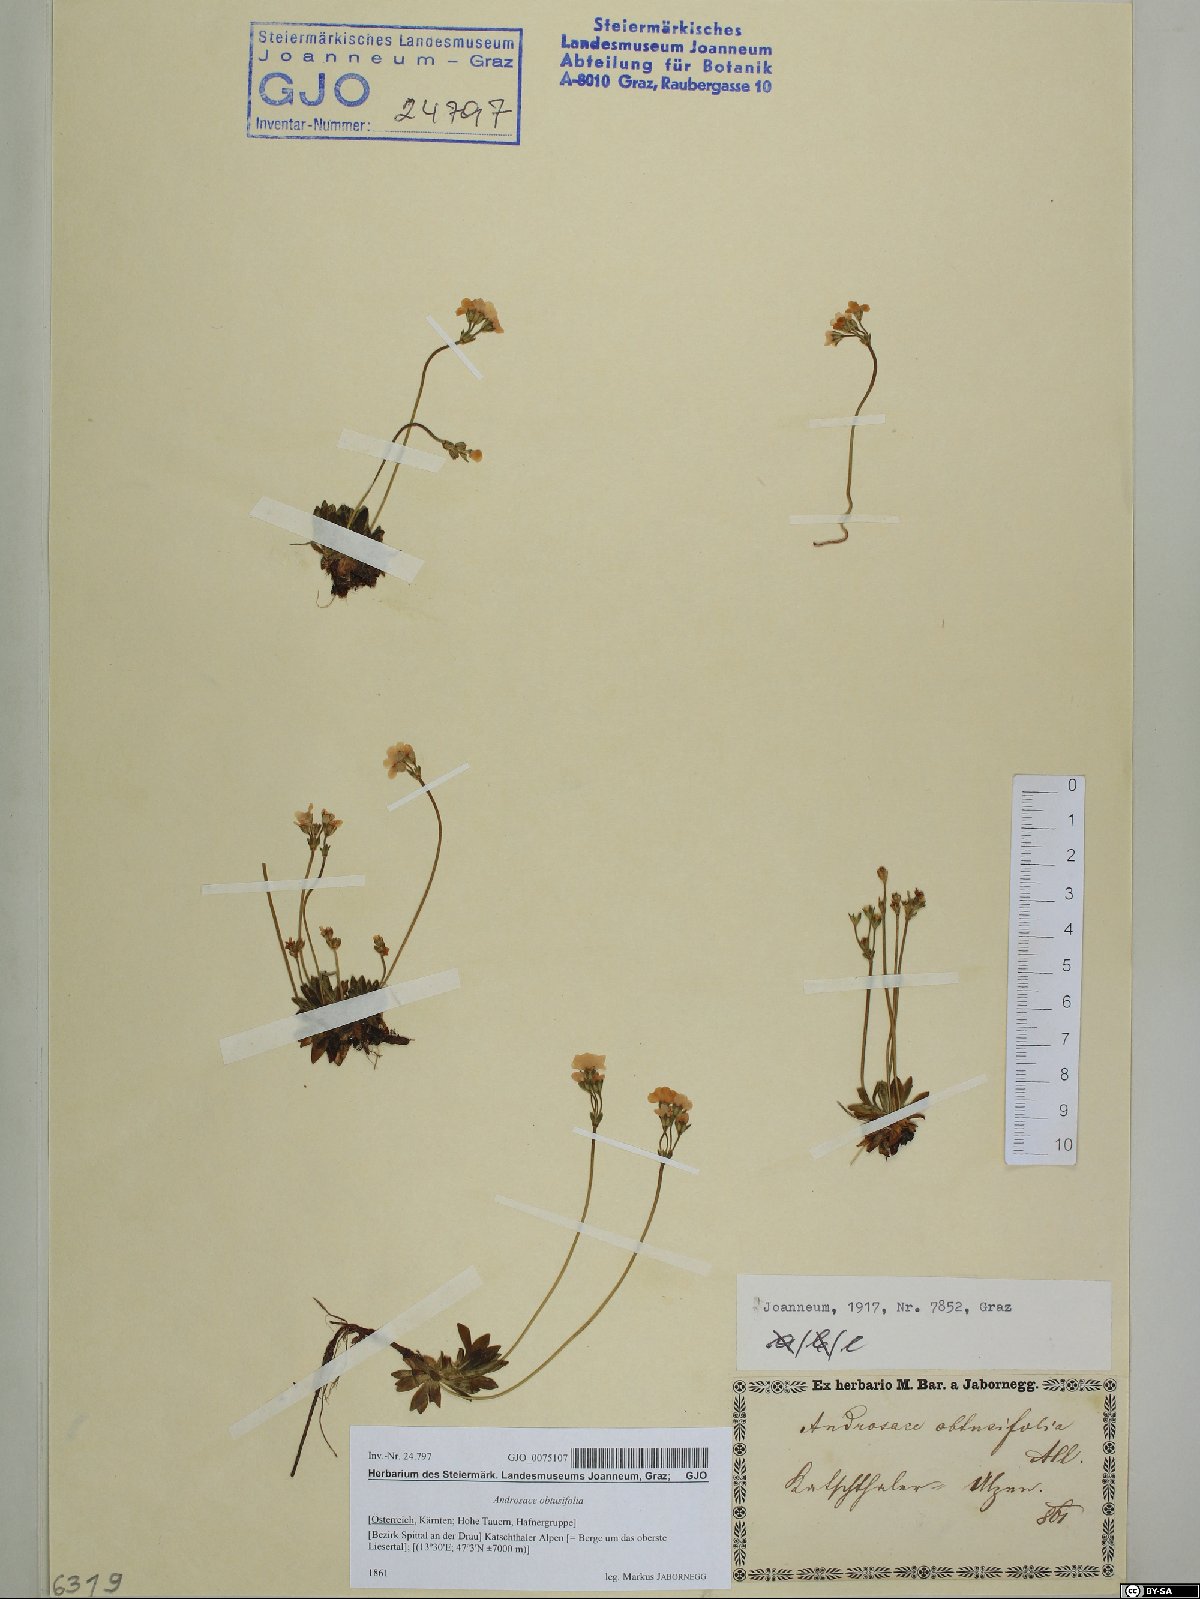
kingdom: Plantae
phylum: Tracheophyta
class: Magnoliopsida
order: Ericales
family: Primulaceae
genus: Androsace
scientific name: Androsace obtusifolia
